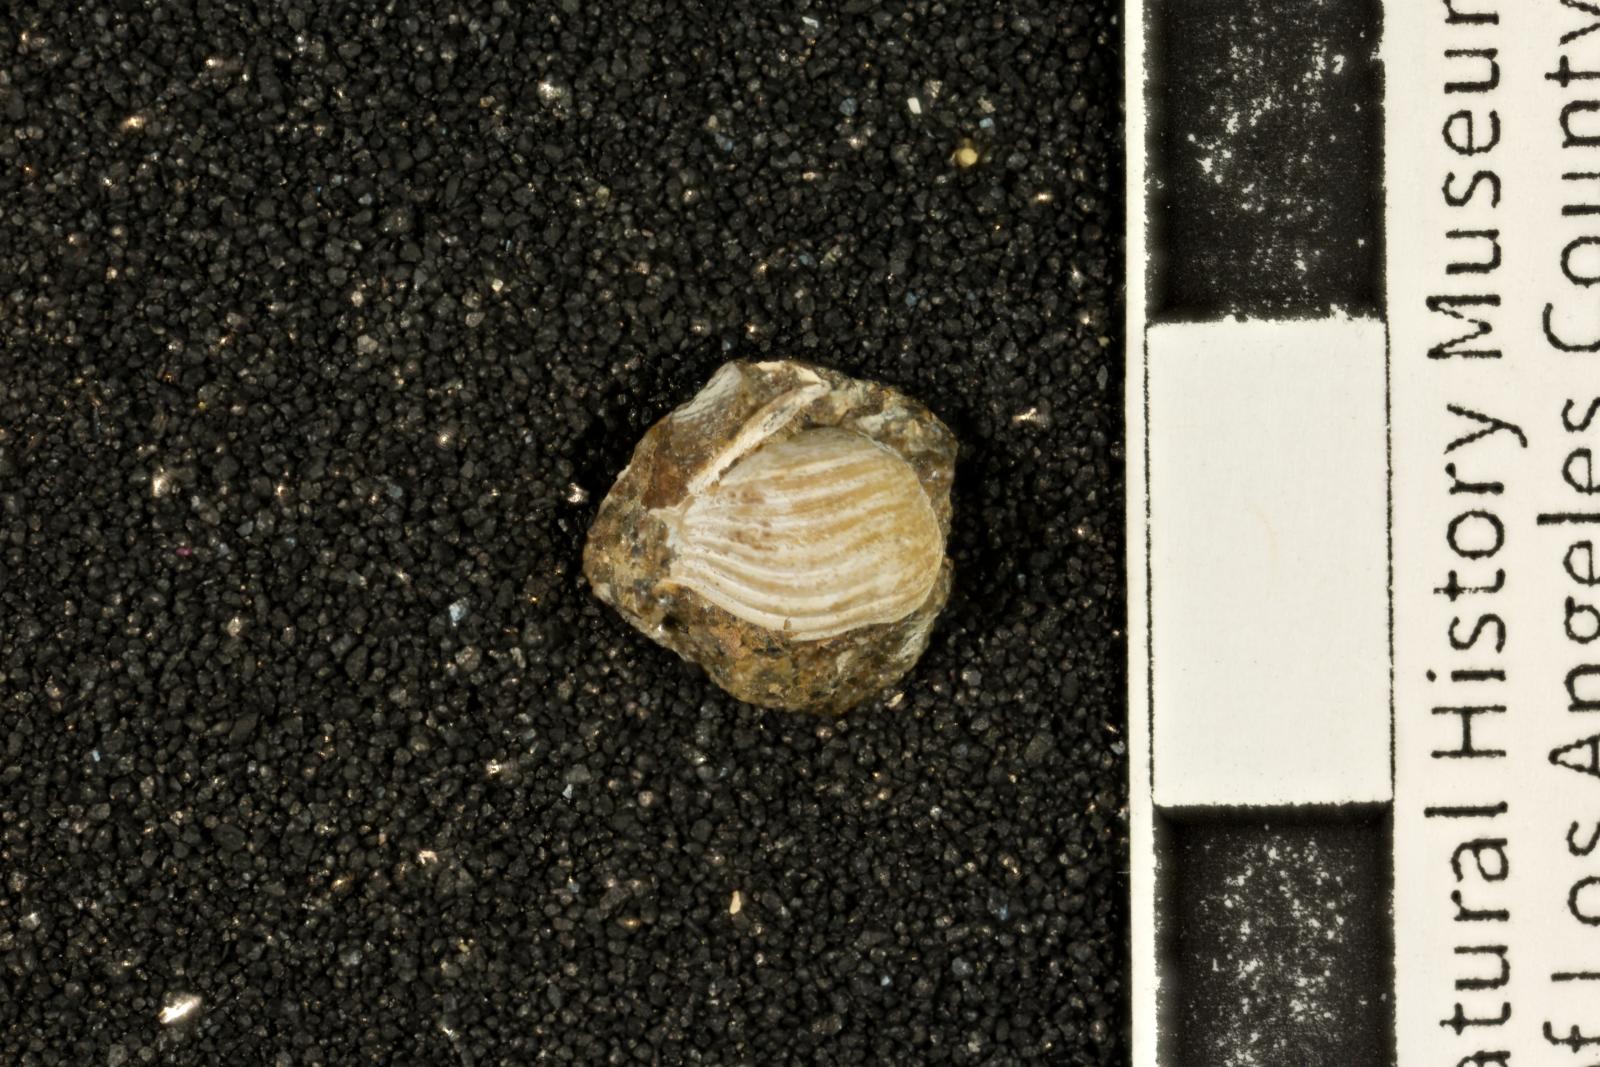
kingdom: Animalia
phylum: Mollusca
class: Bivalvia
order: Myida
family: Corbulidae
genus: Excorbula
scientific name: Excorbula coqua
